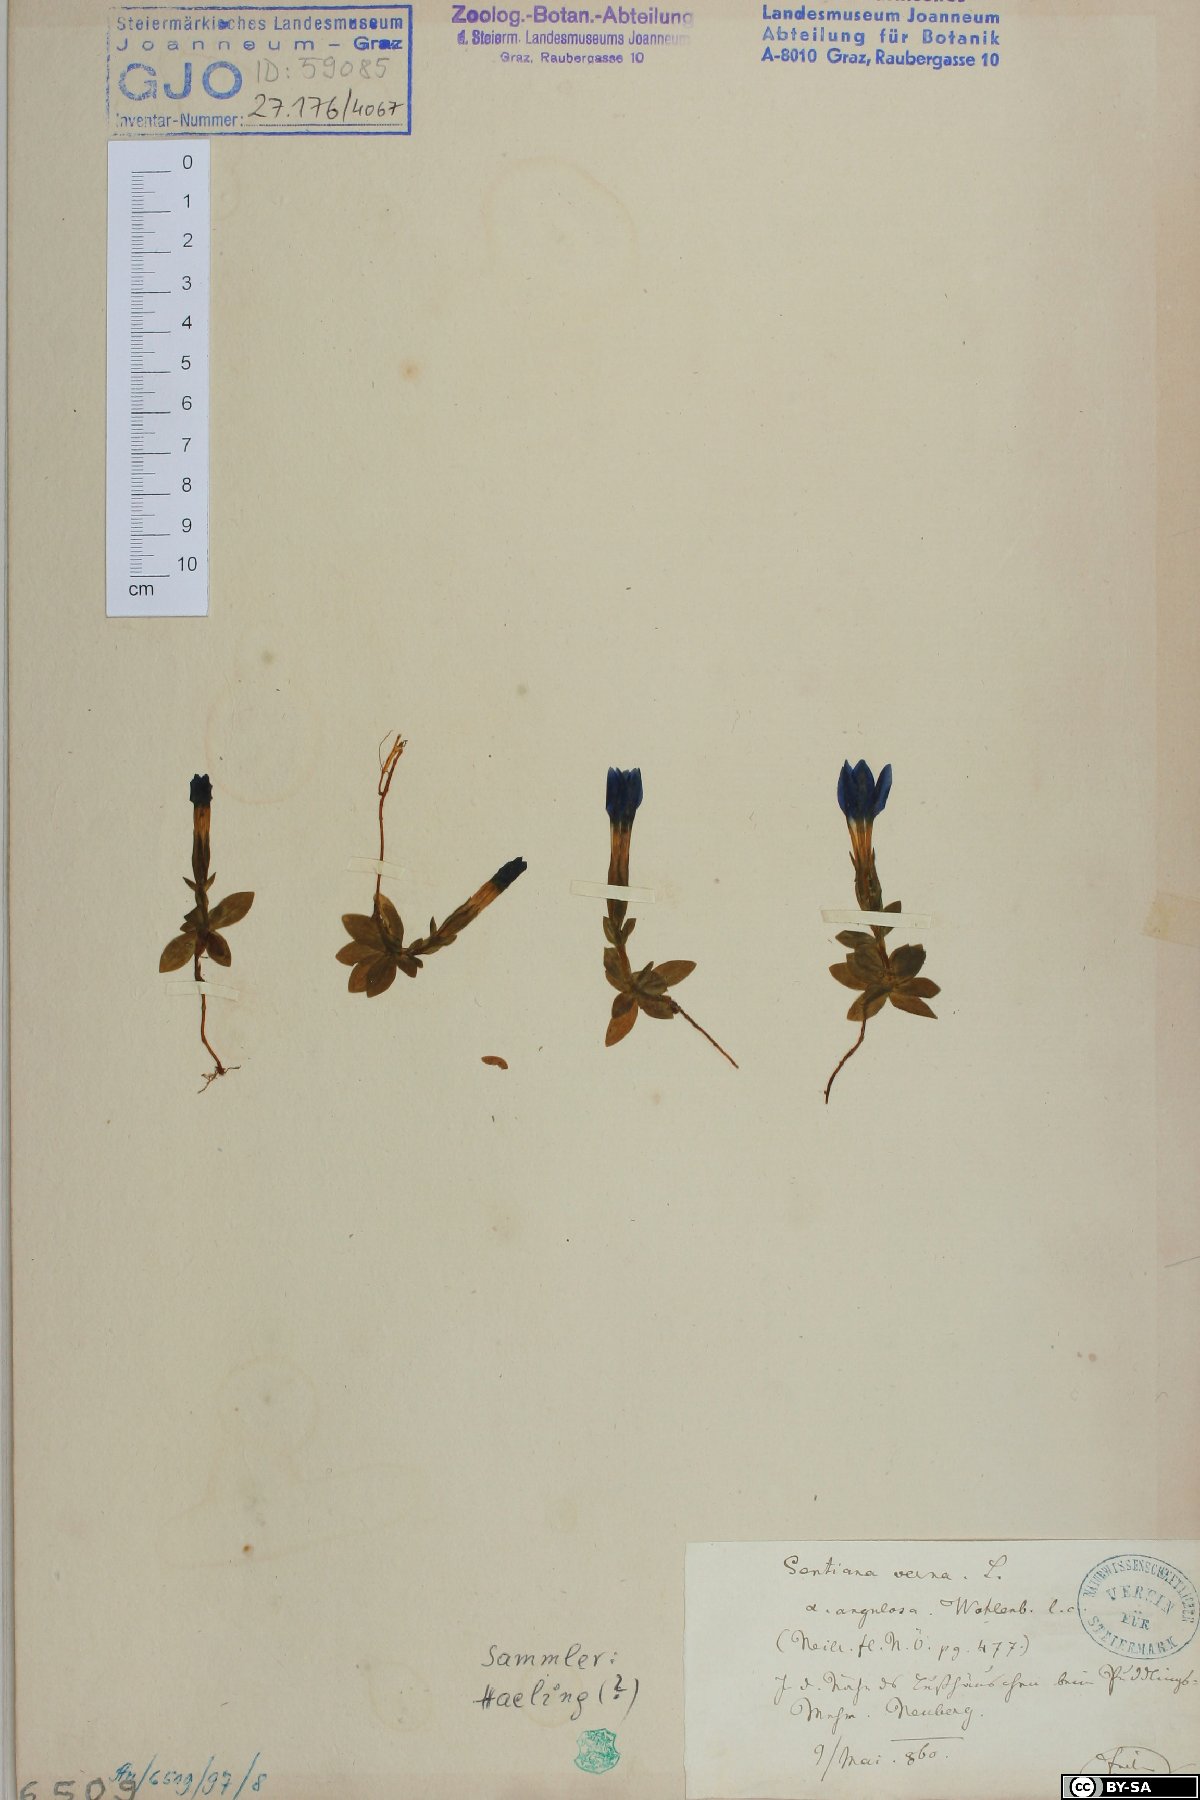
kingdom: Plantae
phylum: Tracheophyta
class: Magnoliopsida
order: Gentianales
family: Gentianaceae
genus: Gentiana
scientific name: Gentiana verna
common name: Spring gentian
